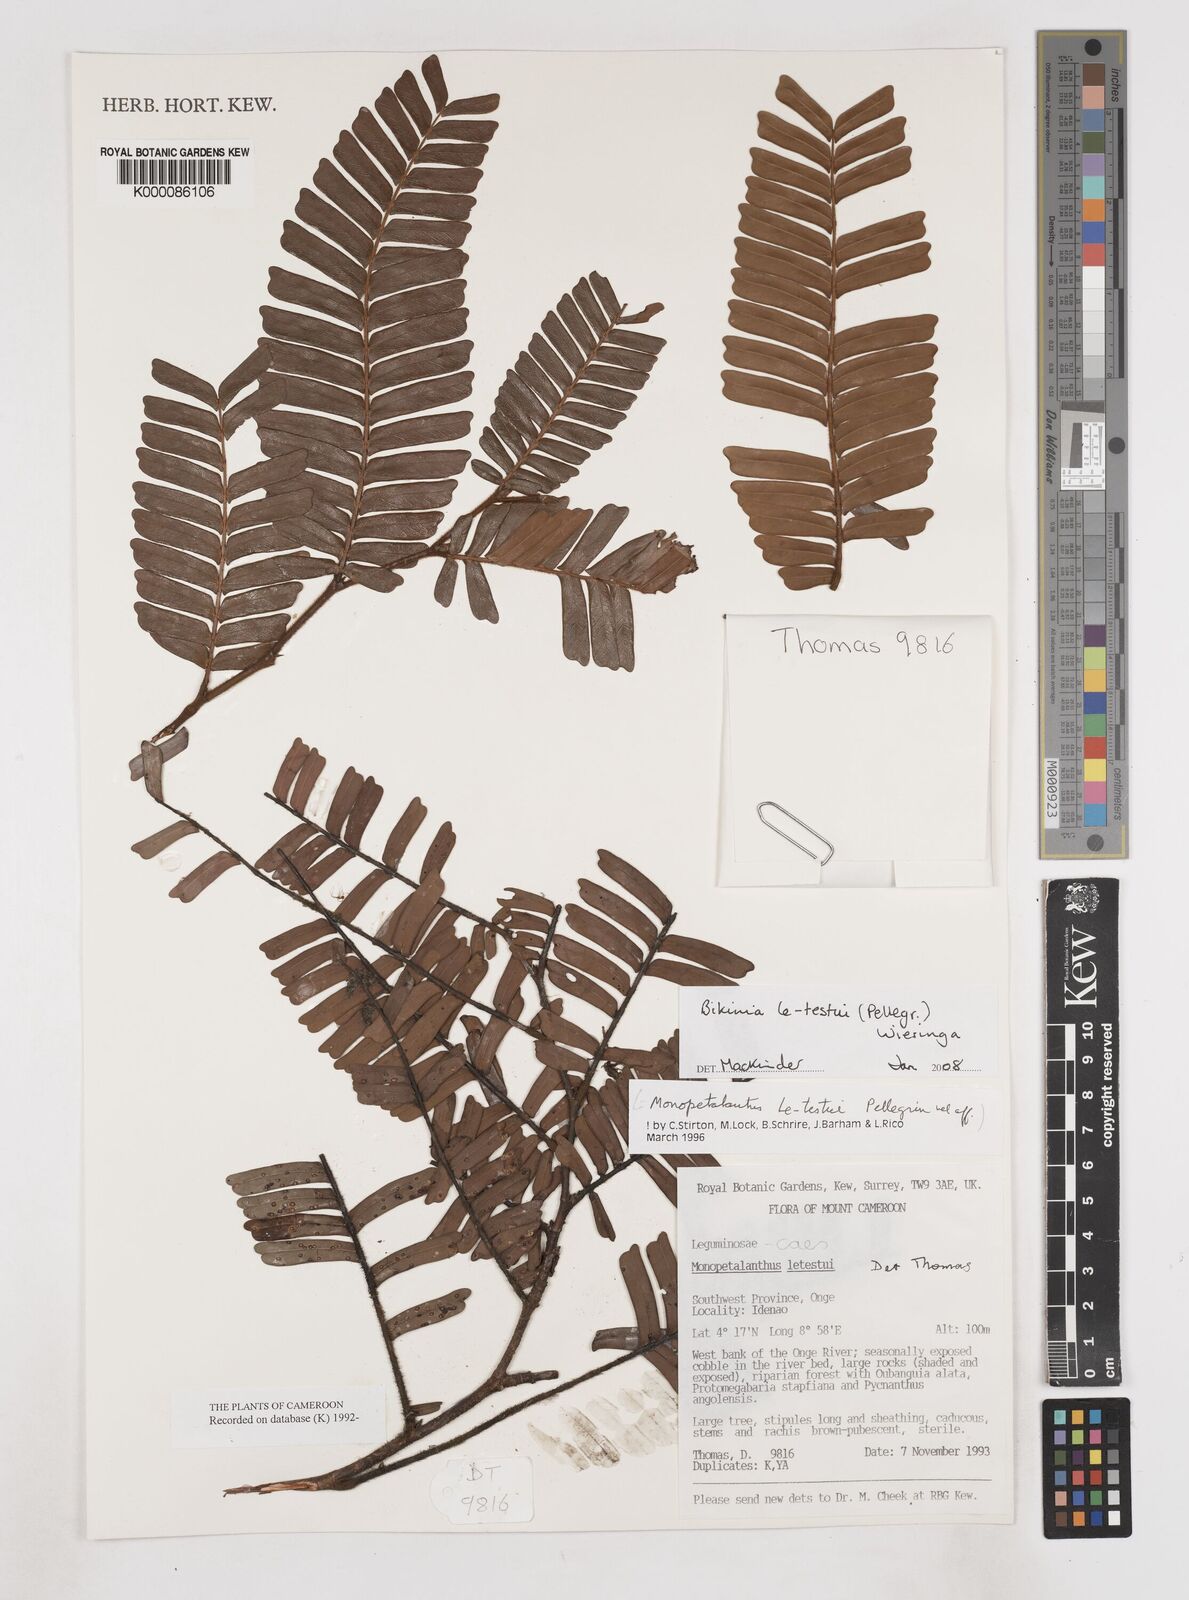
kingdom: Plantae
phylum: Tracheophyta
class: Magnoliopsida
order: Metteniusales
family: Metteniusaceae
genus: Apodytes
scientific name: Apodytes dimidiata
